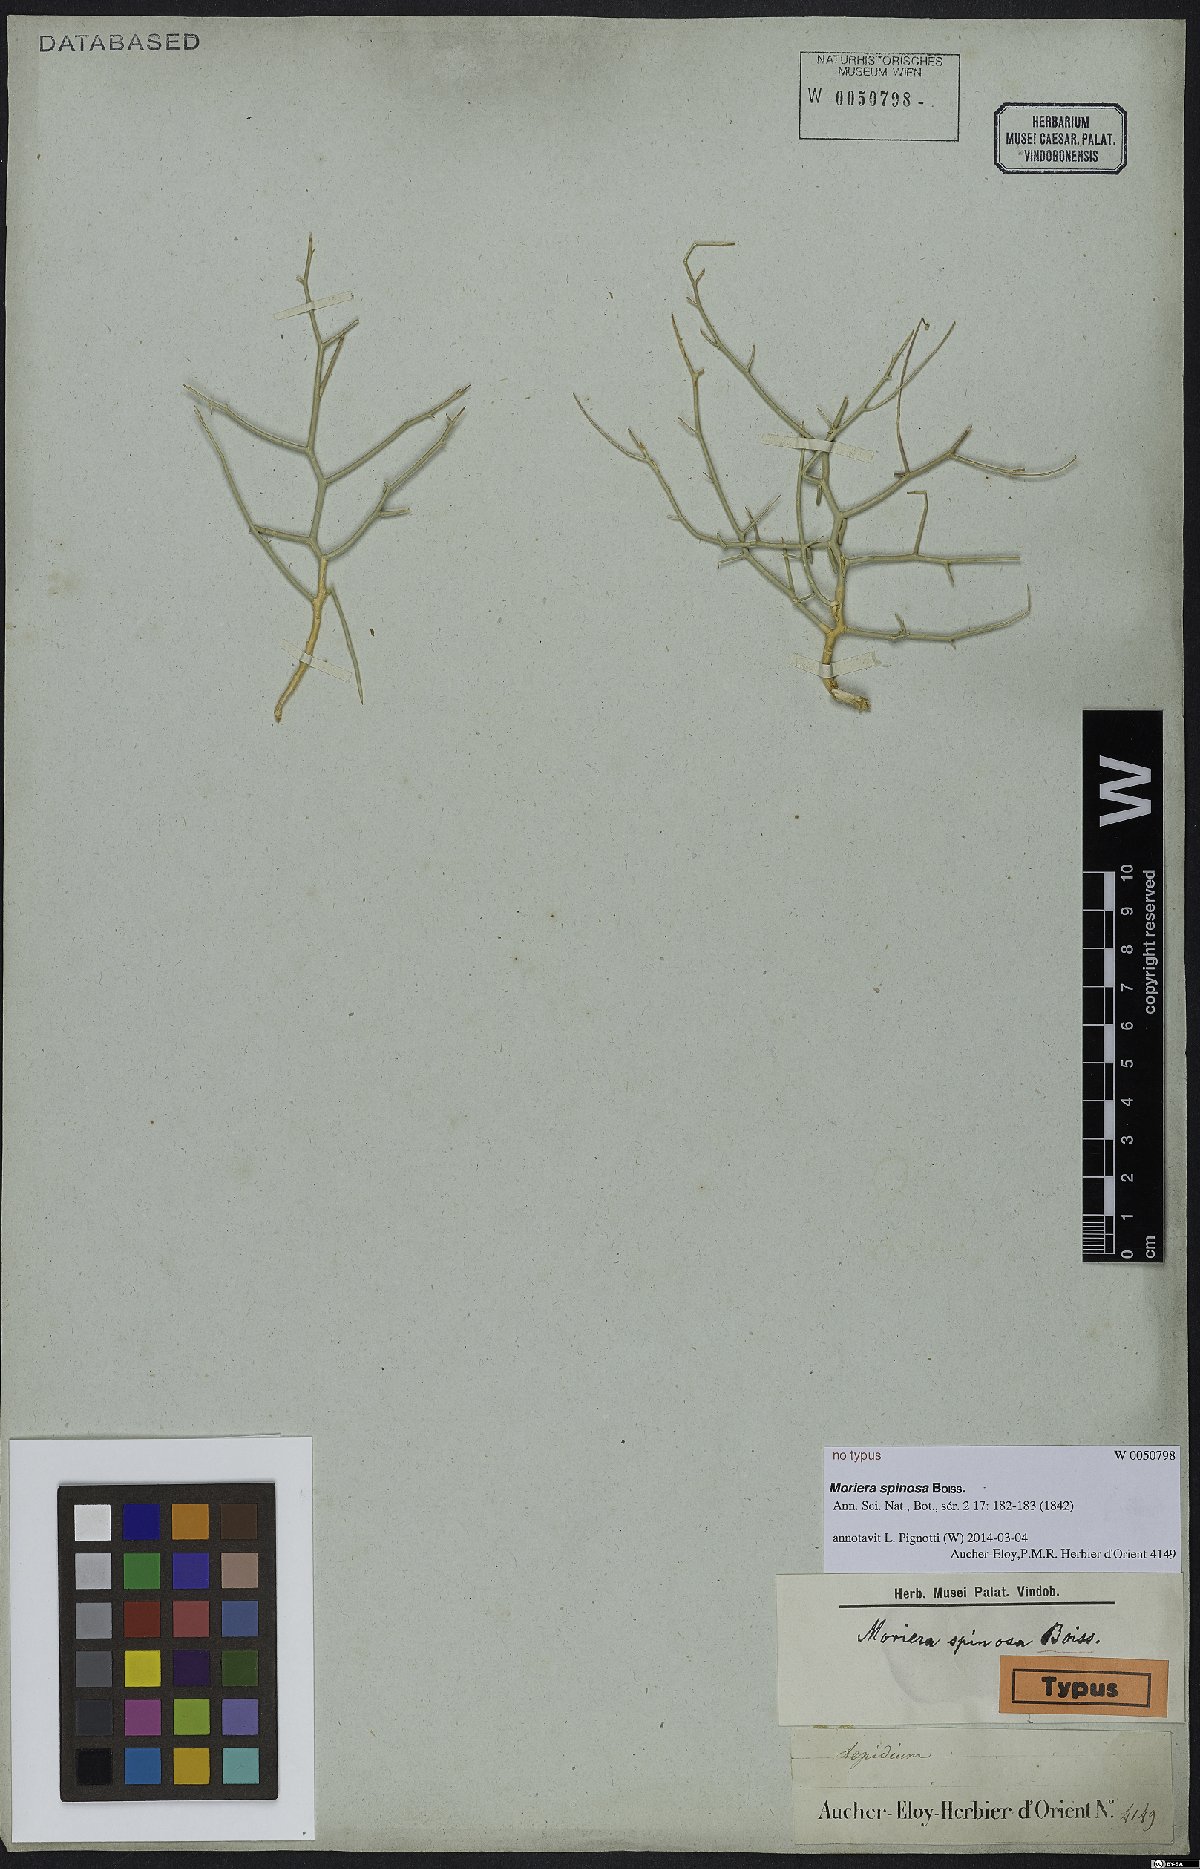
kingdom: Plantae
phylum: Tracheophyta
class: Magnoliopsida
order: Brassicales
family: Brassicaceae
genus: Aethionema
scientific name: Aethionema virgatum
